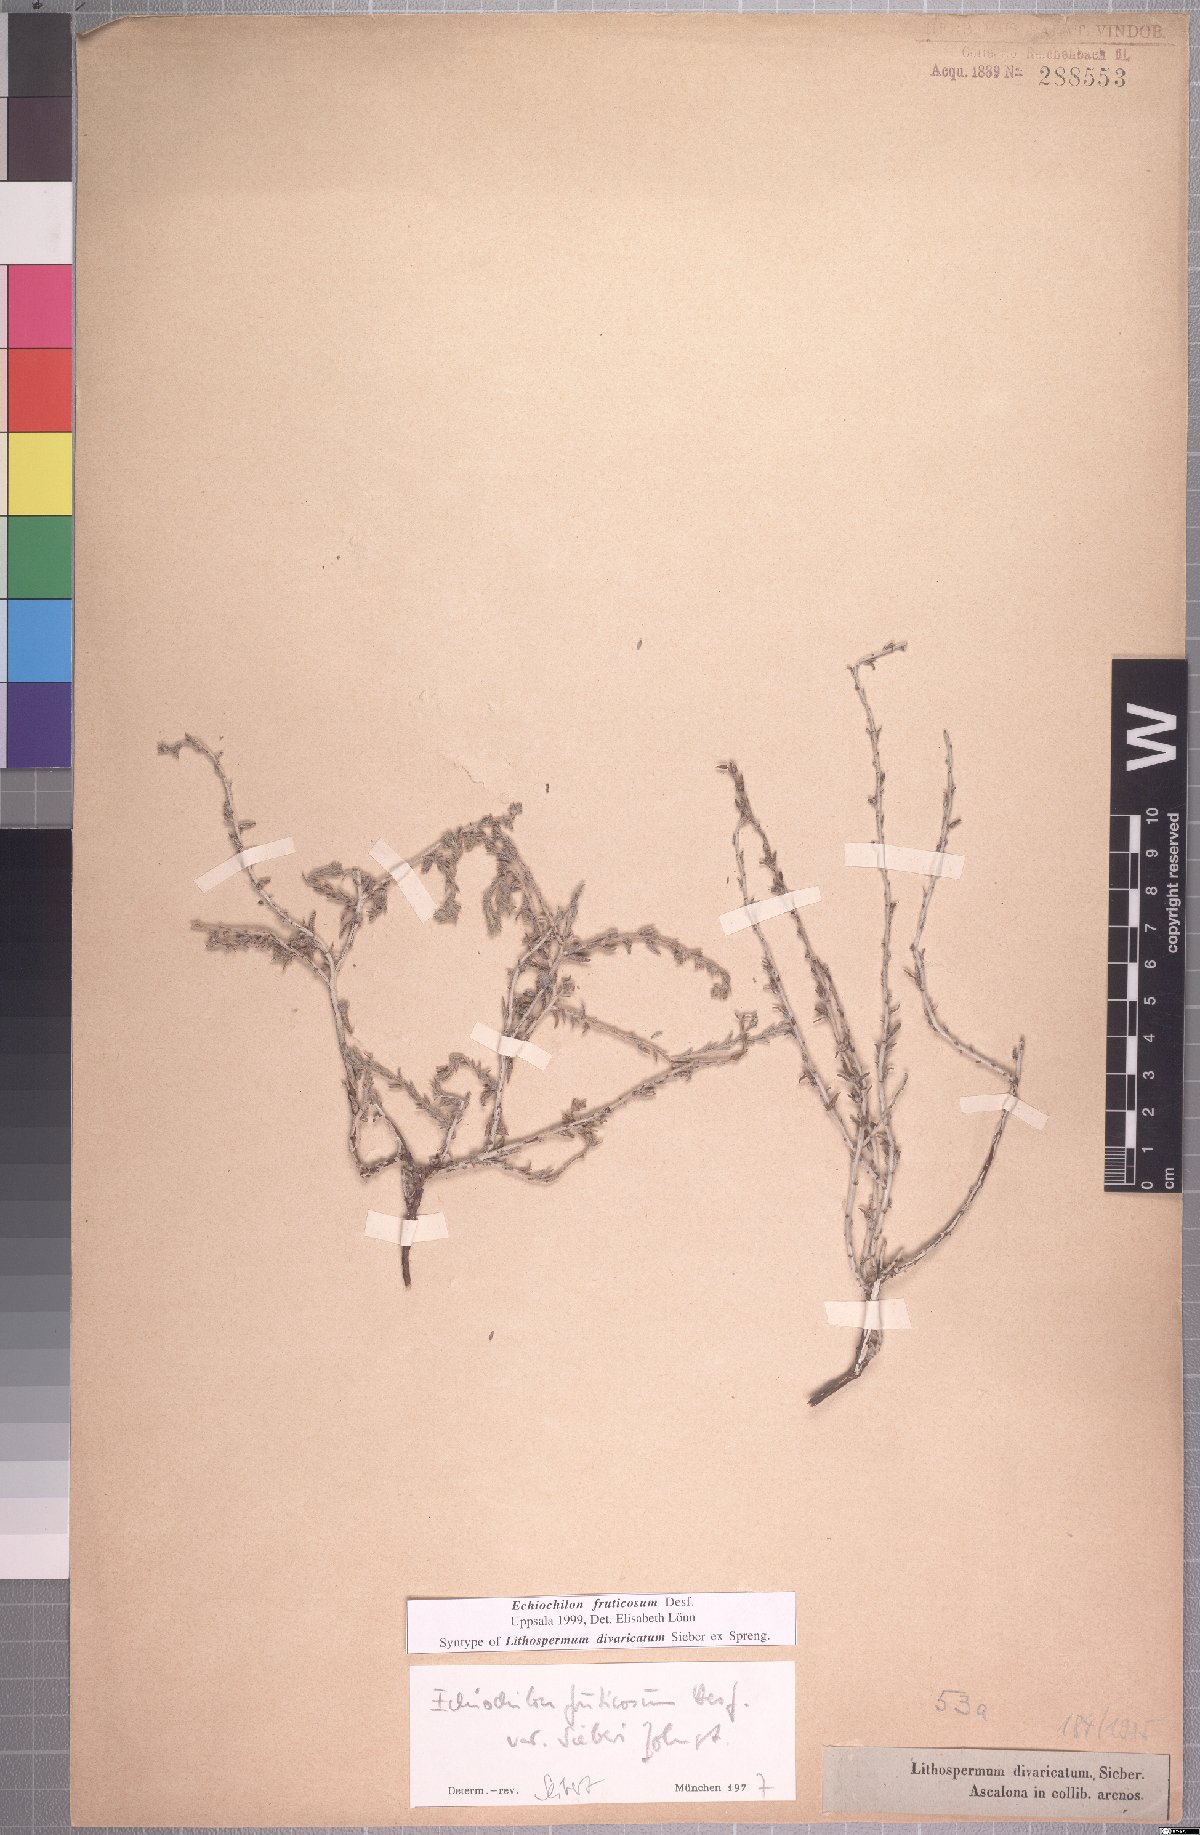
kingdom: Plantae
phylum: Tracheophyta
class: Magnoliopsida
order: Boraginales
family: Boraginaceae
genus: Echiochilon
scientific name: Echiochilon fruticosum
